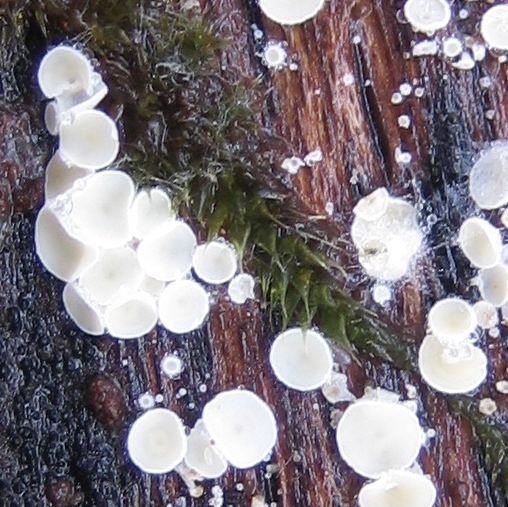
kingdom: Fungi
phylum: Ascomycota
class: Leotiomycetes
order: Helotiales
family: Lachnaceae
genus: Lachnum
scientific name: Lachnum
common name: frynseskive
